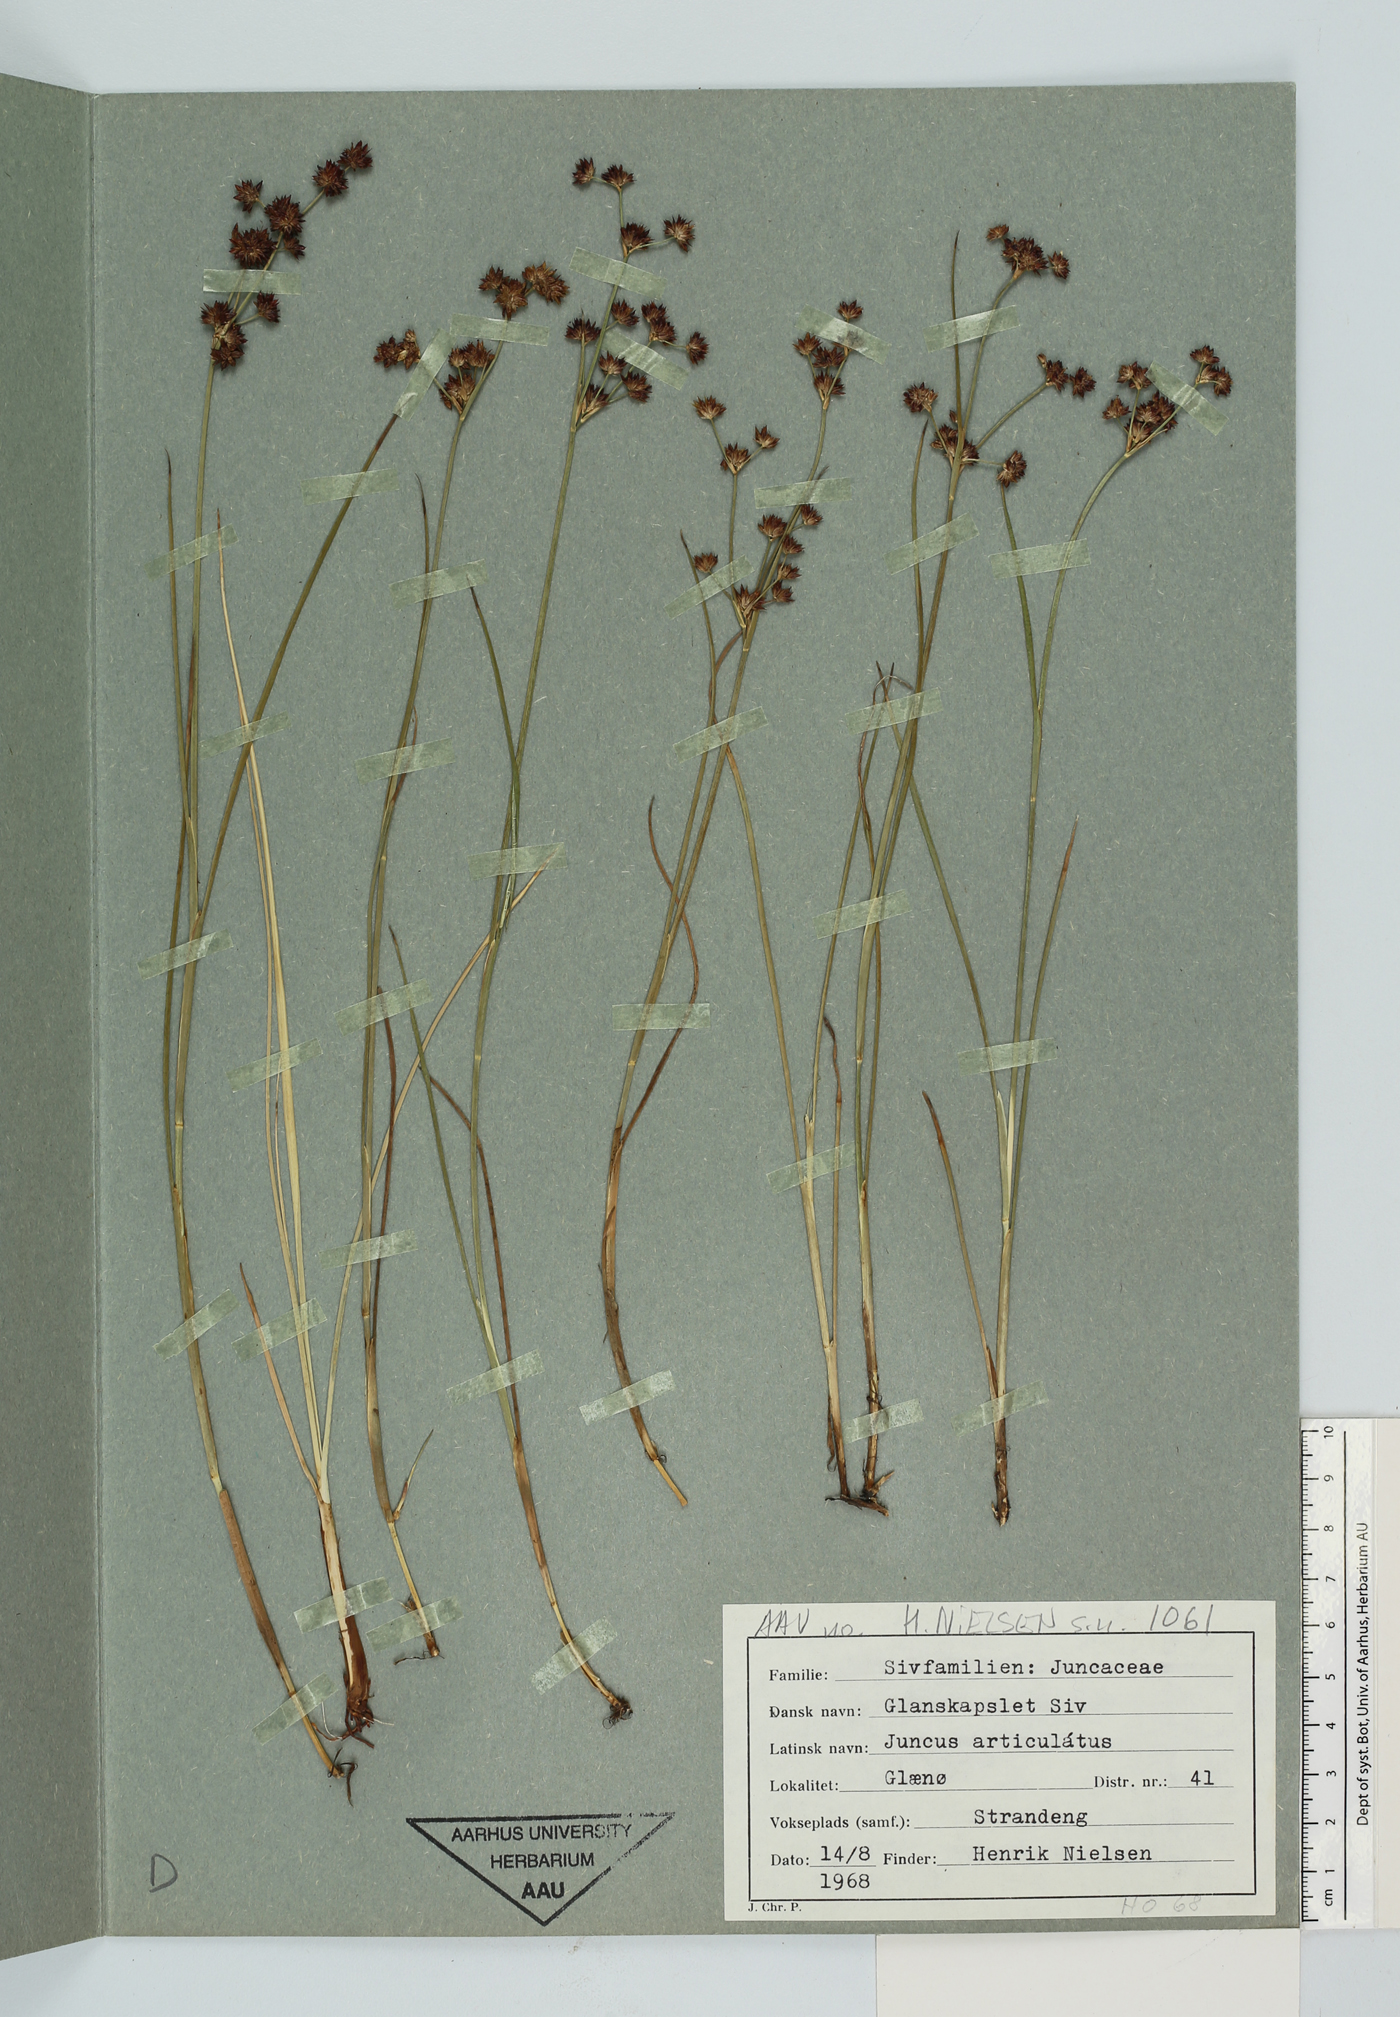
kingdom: Plantae
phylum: Tracheophyta
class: Liliopsida
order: Poales
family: Juncaceae
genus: Juncus
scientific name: Juncus articulatus
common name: Jointed rush
